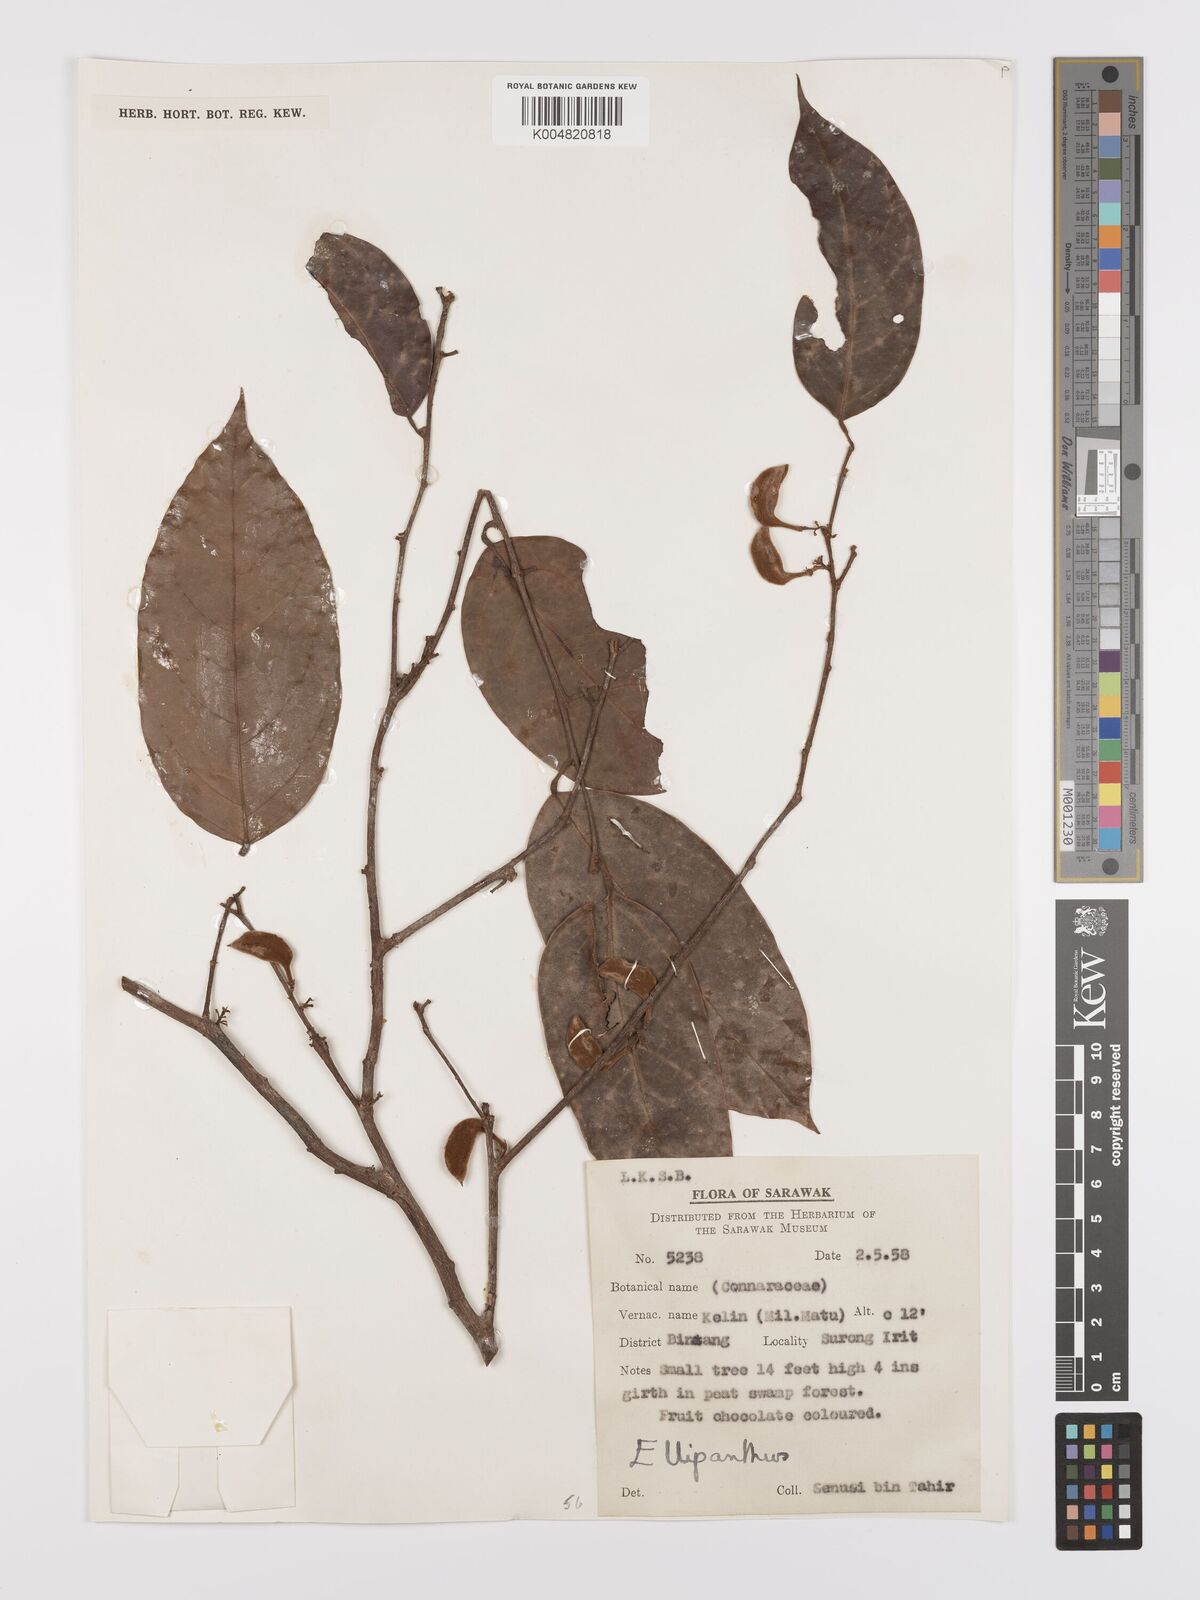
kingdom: Plantae
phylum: Tracheophyta
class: Magnoliopsida
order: Oxalidales
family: Connaraceae
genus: Ellipanthus
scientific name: Ellipanthus
